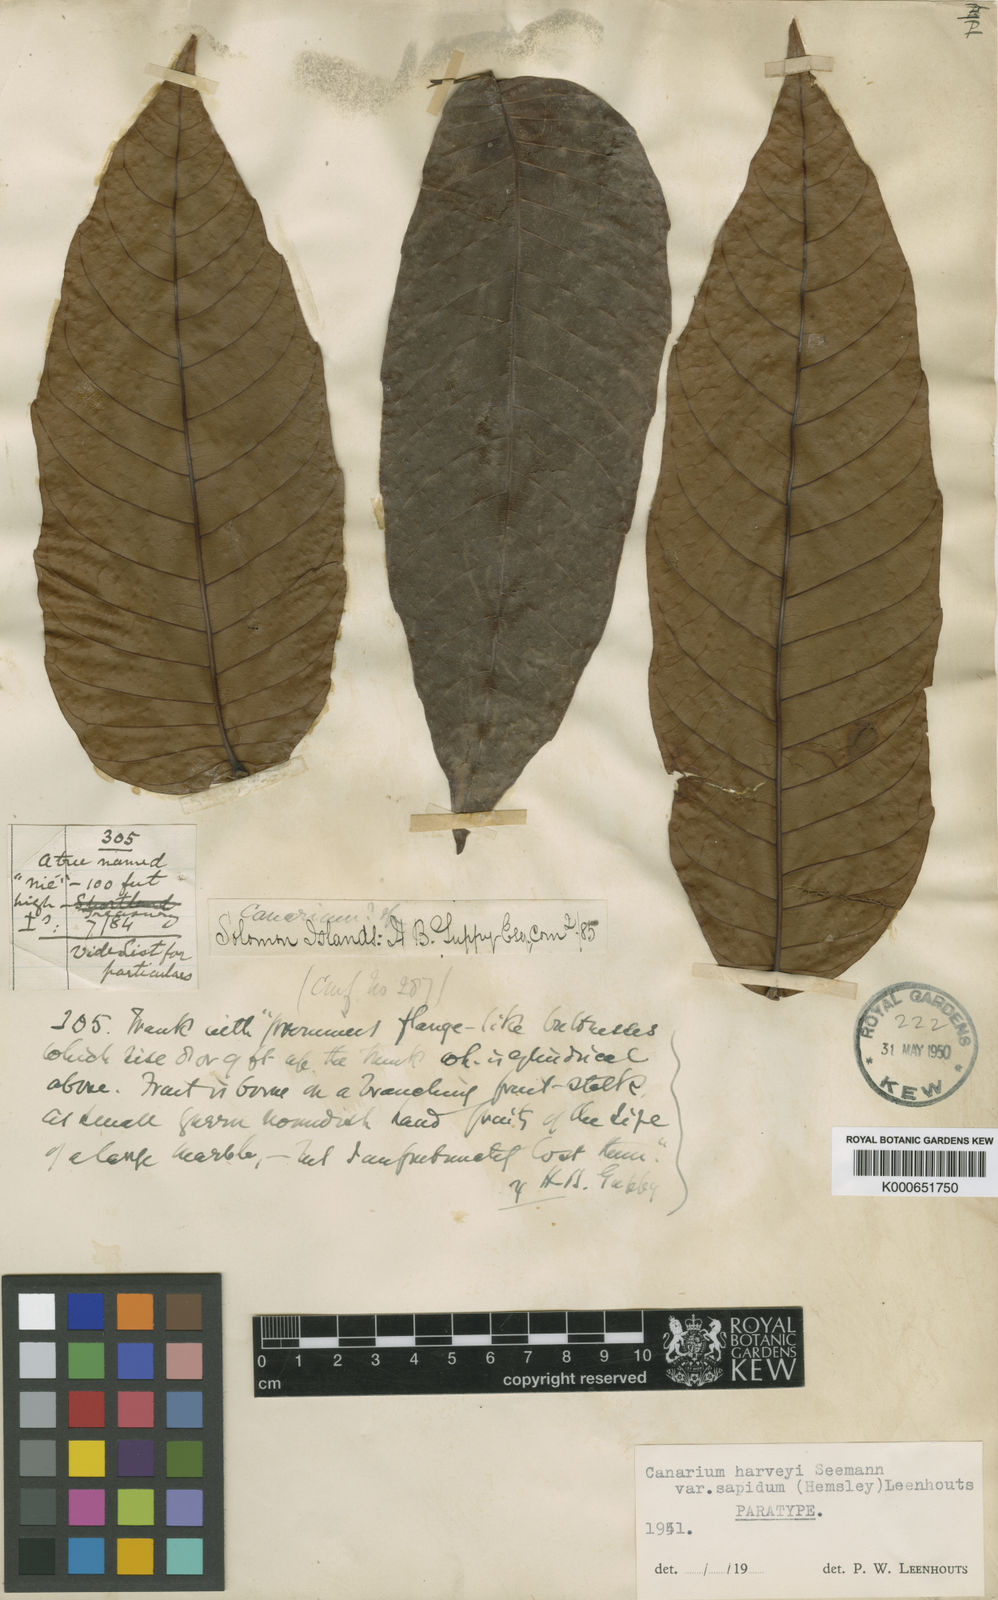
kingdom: Plantae
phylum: Tracheophyta
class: Magnoliopsida
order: Sapindales
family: Burseraceae
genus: Canarium
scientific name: Canarium harveyi
